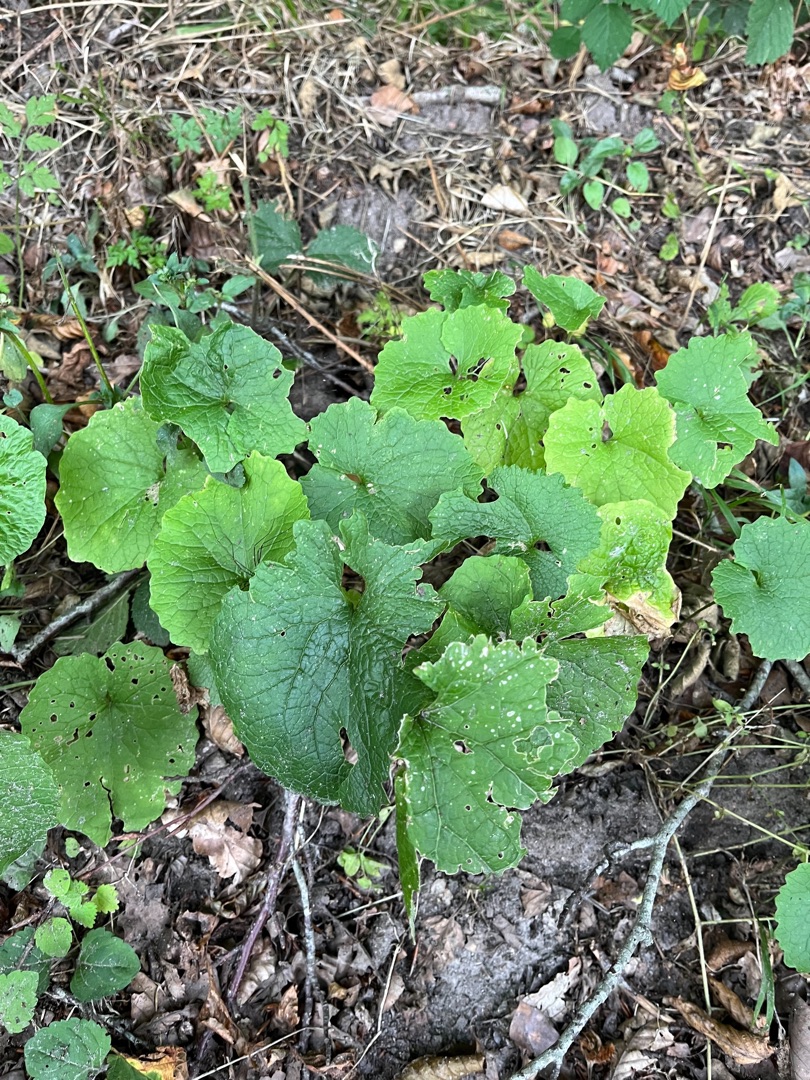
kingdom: Plantae
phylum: Tracheophyta
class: Magnoliopsida
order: Brassicales
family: Brassicaceae
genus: Alliaria
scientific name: Alliaria petiolata
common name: Løgkarse
